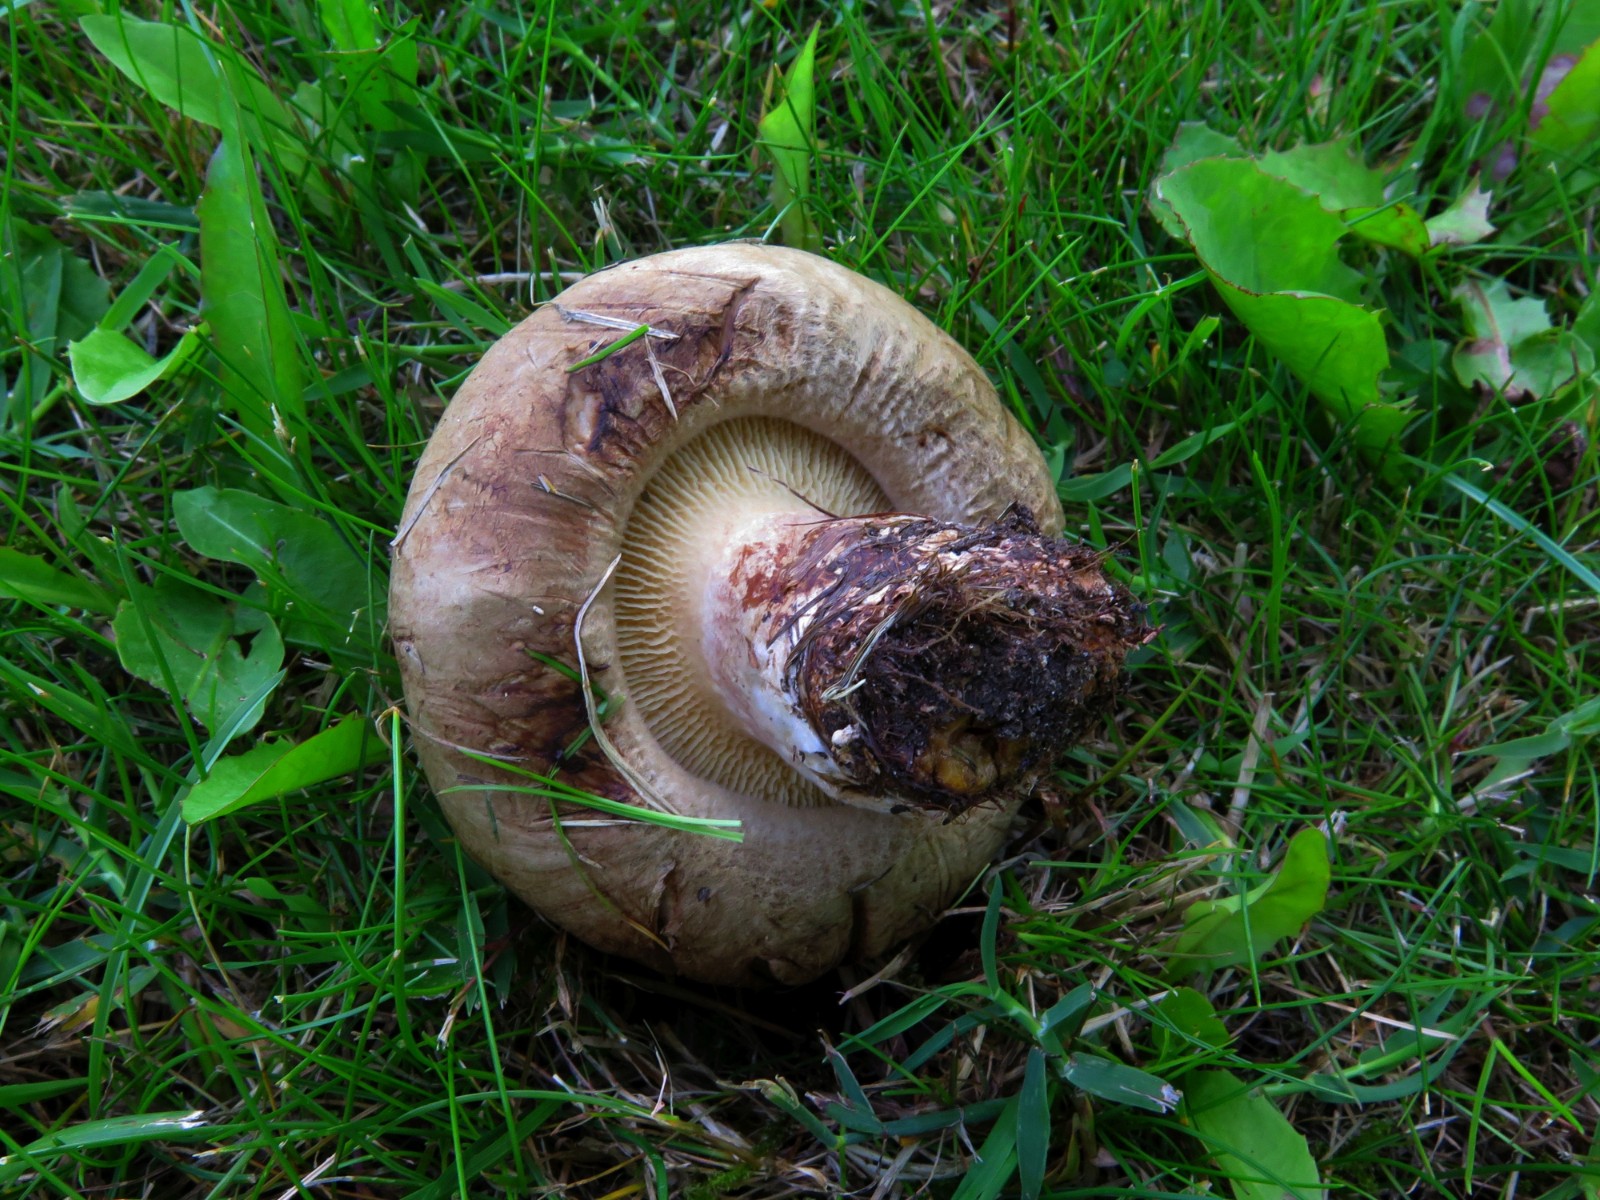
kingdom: Fungi
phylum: Basidiomycota
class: Agaricomycetes
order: Boletales
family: Paxillaceae
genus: Paxillus
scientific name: Paxillus obscurisporus
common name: mahognisporet netbladhat
